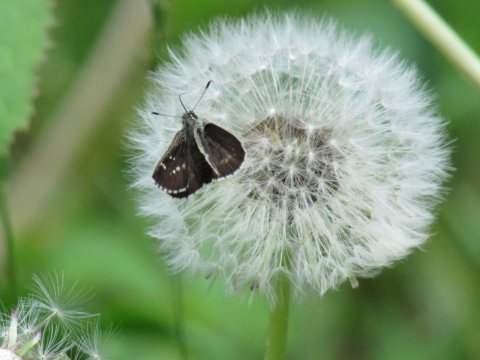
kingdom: Animalia
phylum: Arthropoda
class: Insecta
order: Lepidoptera
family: Hesperiidae
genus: Mastor
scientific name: Mastor hegon
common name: Pepper and Salt Skipper
